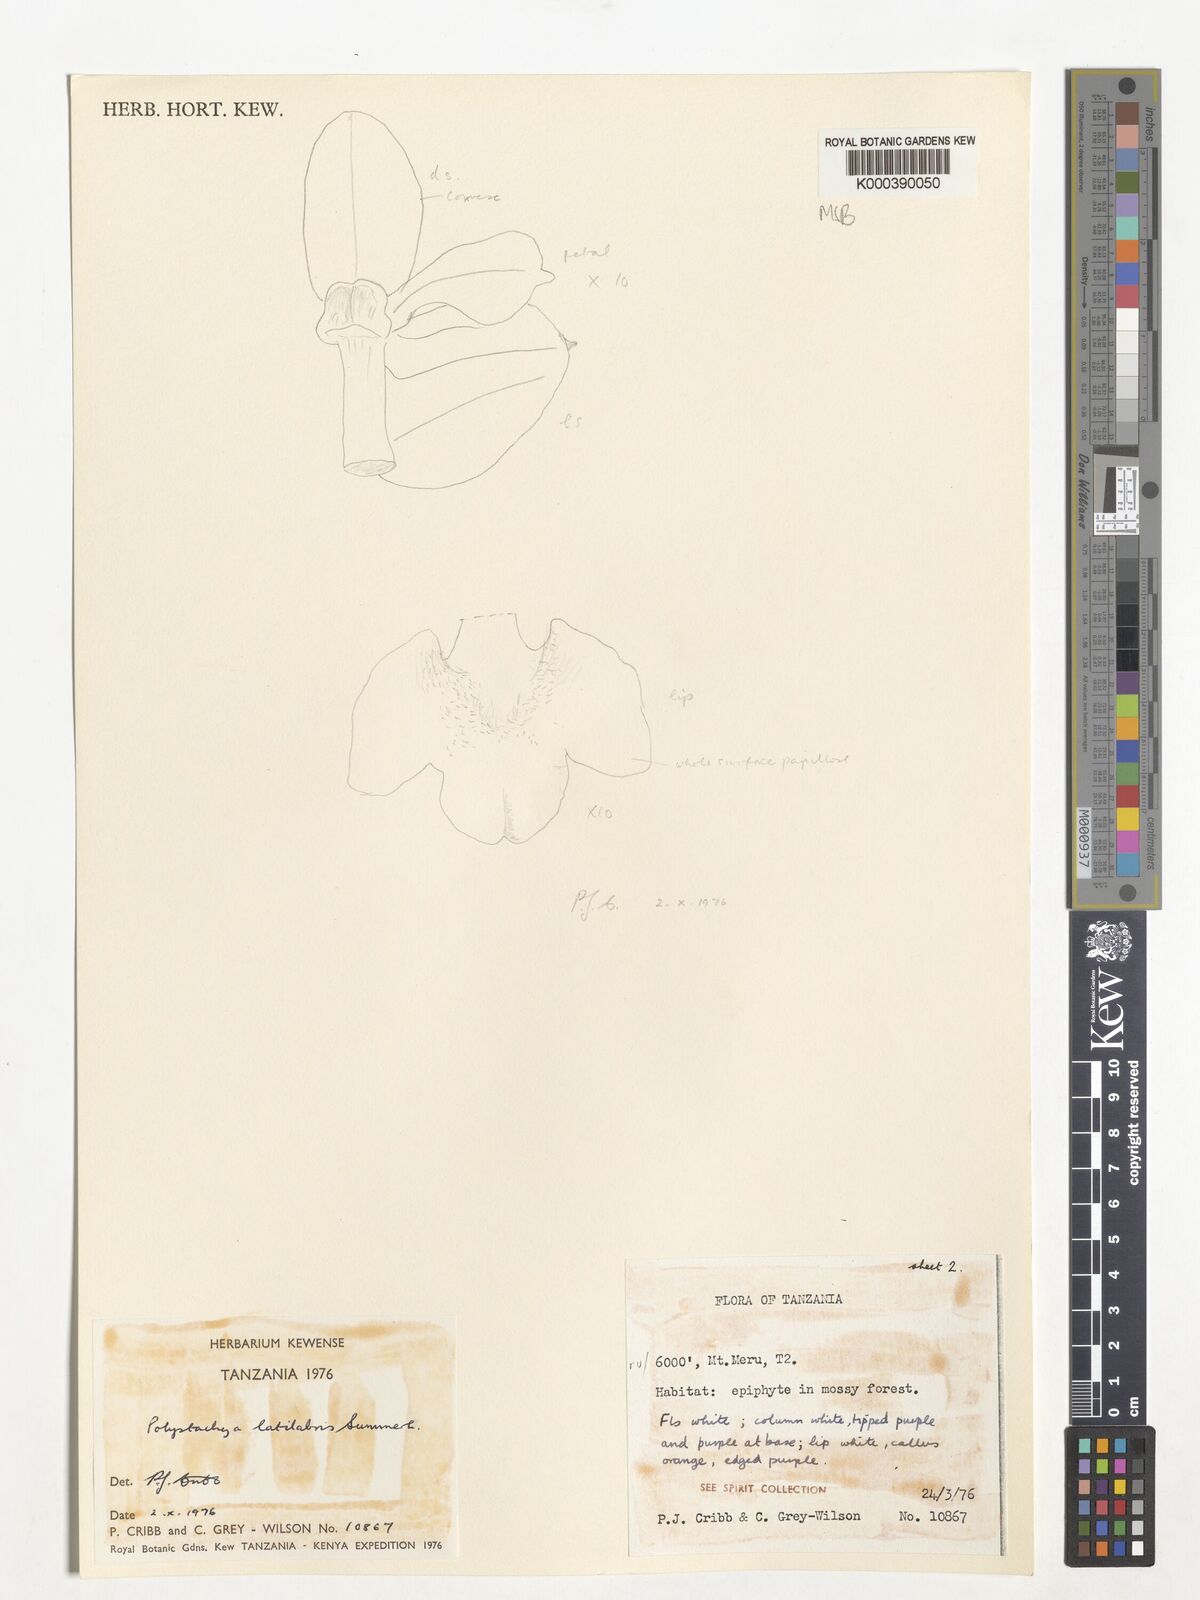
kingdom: Plantae
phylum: Tracheophyta
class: Liliopsida
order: Asparagales
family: Orchidaceae
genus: Polystachya
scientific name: Polystachya caespitifica
